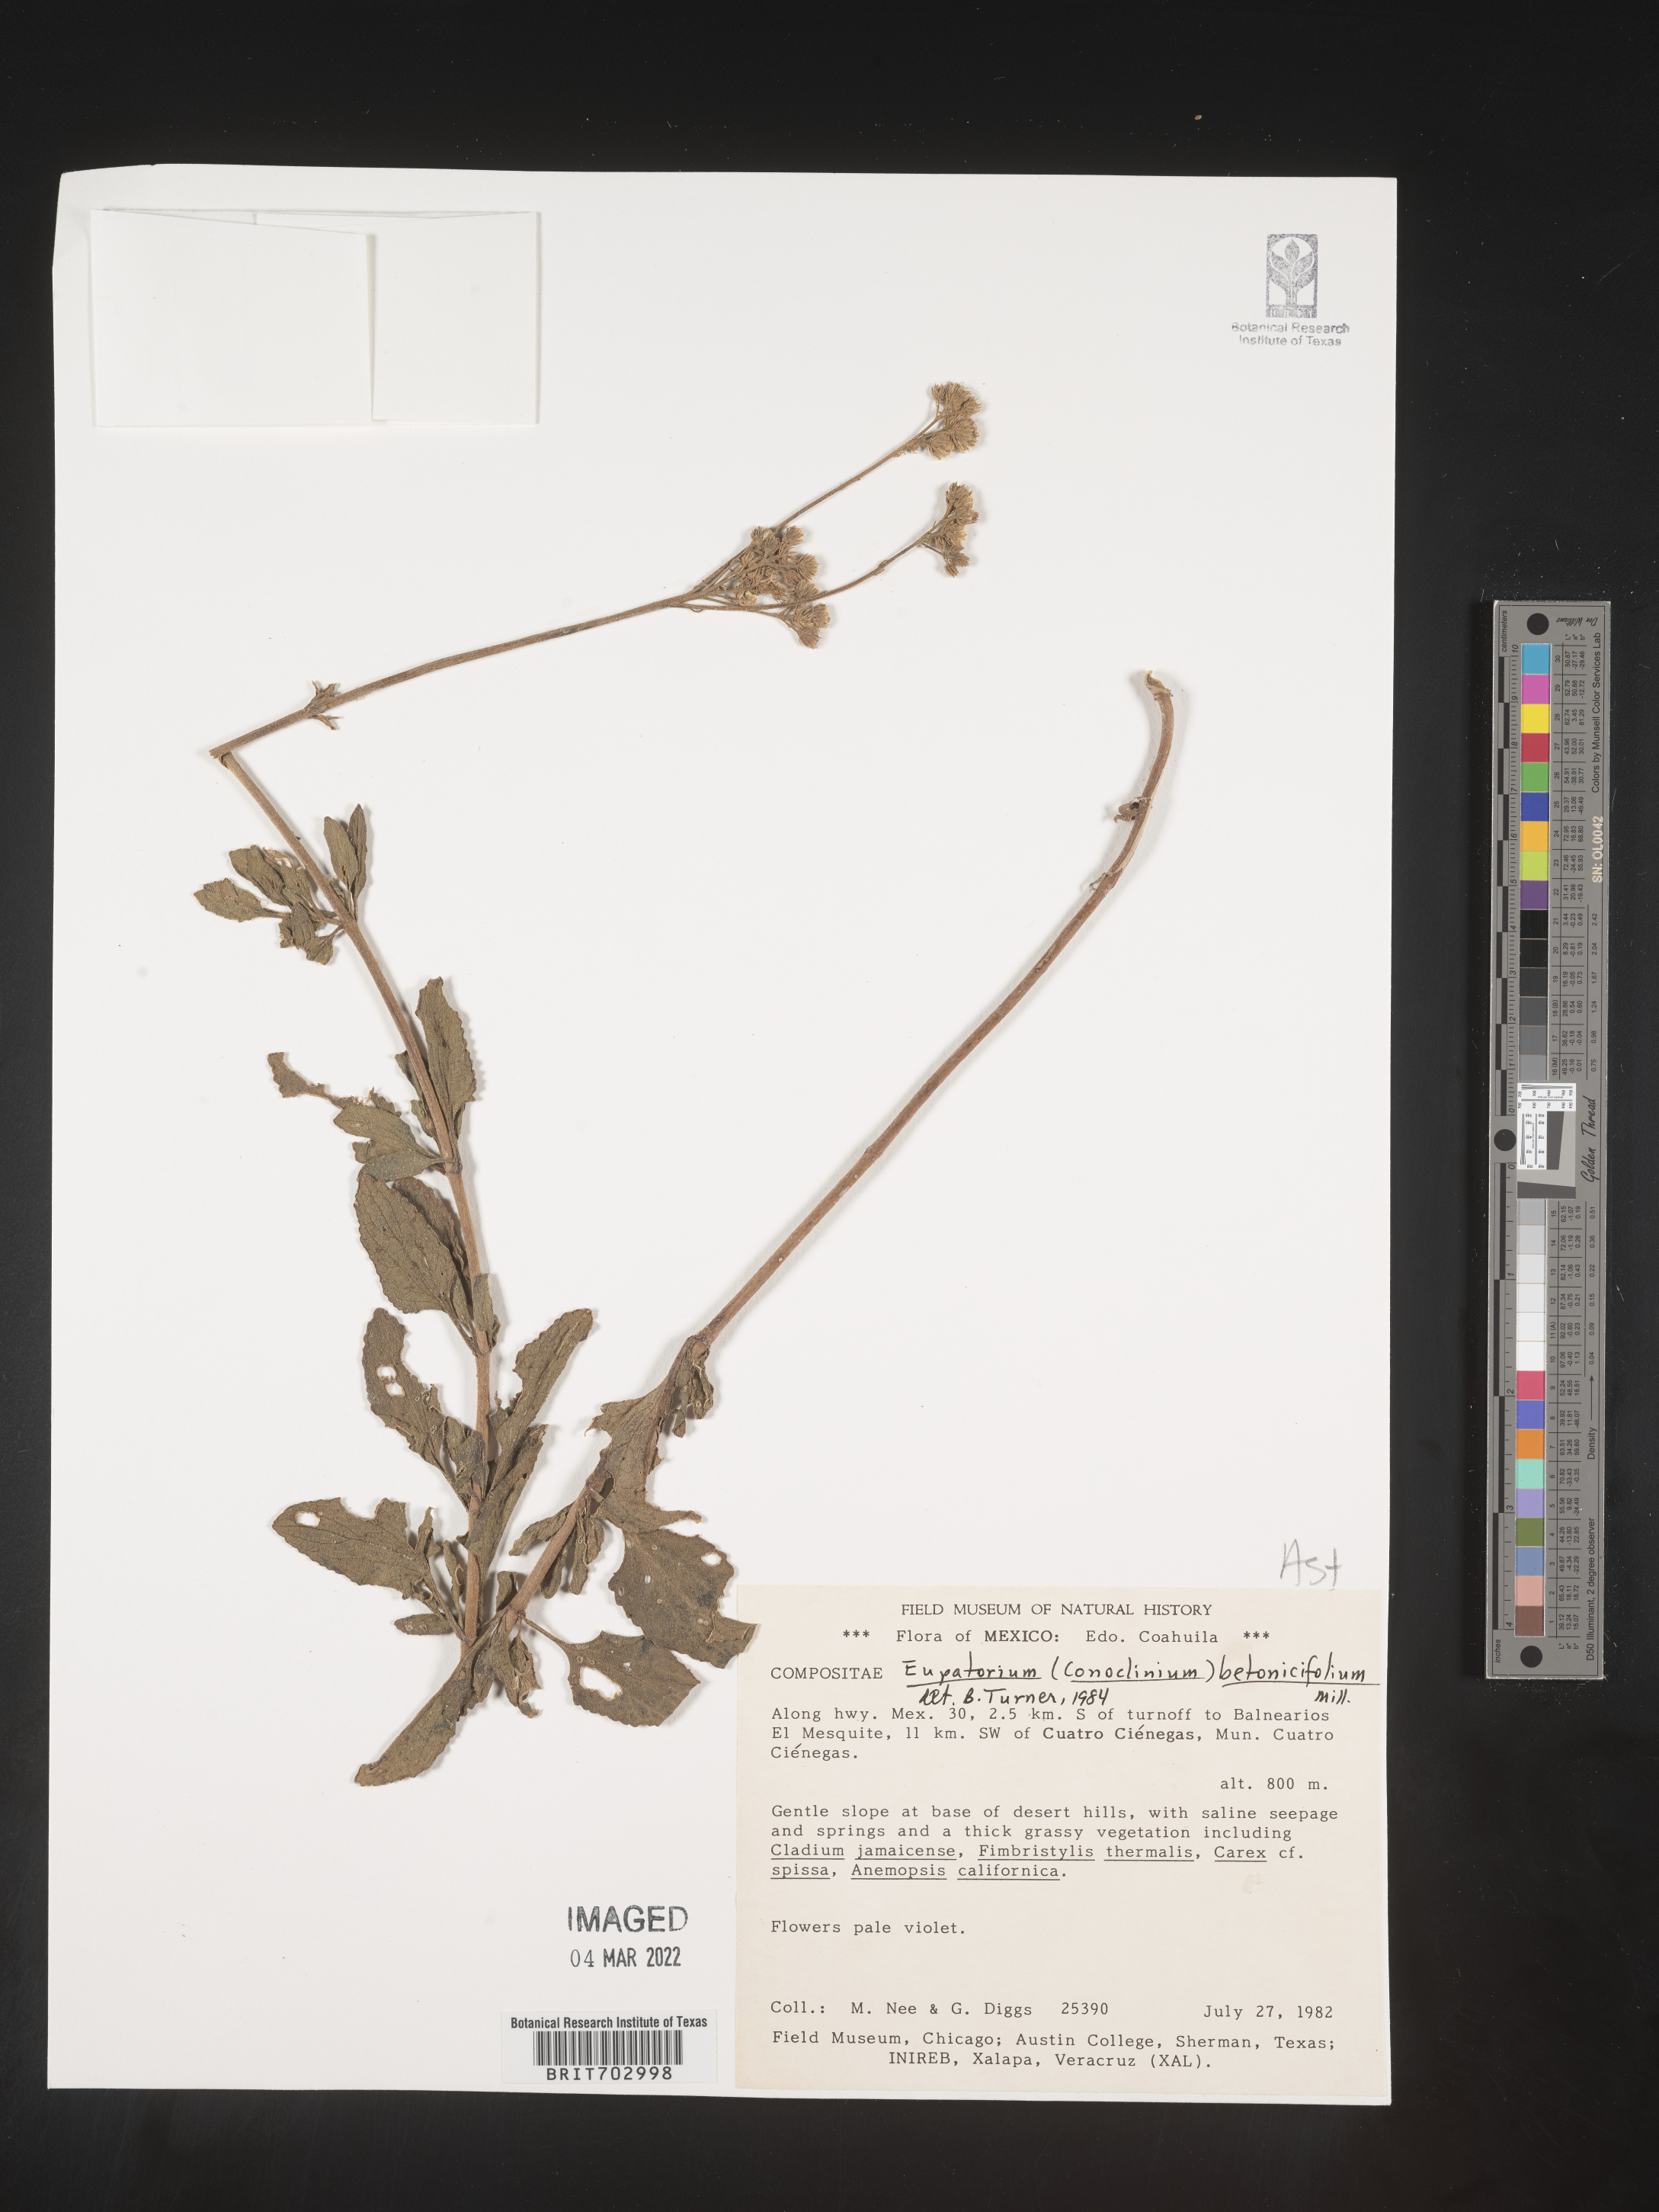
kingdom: Plantae
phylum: Tracheophyta
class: Magnoliopsida
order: Asterales
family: Asteraceae
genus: Eupatorium
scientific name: Eupatorium
